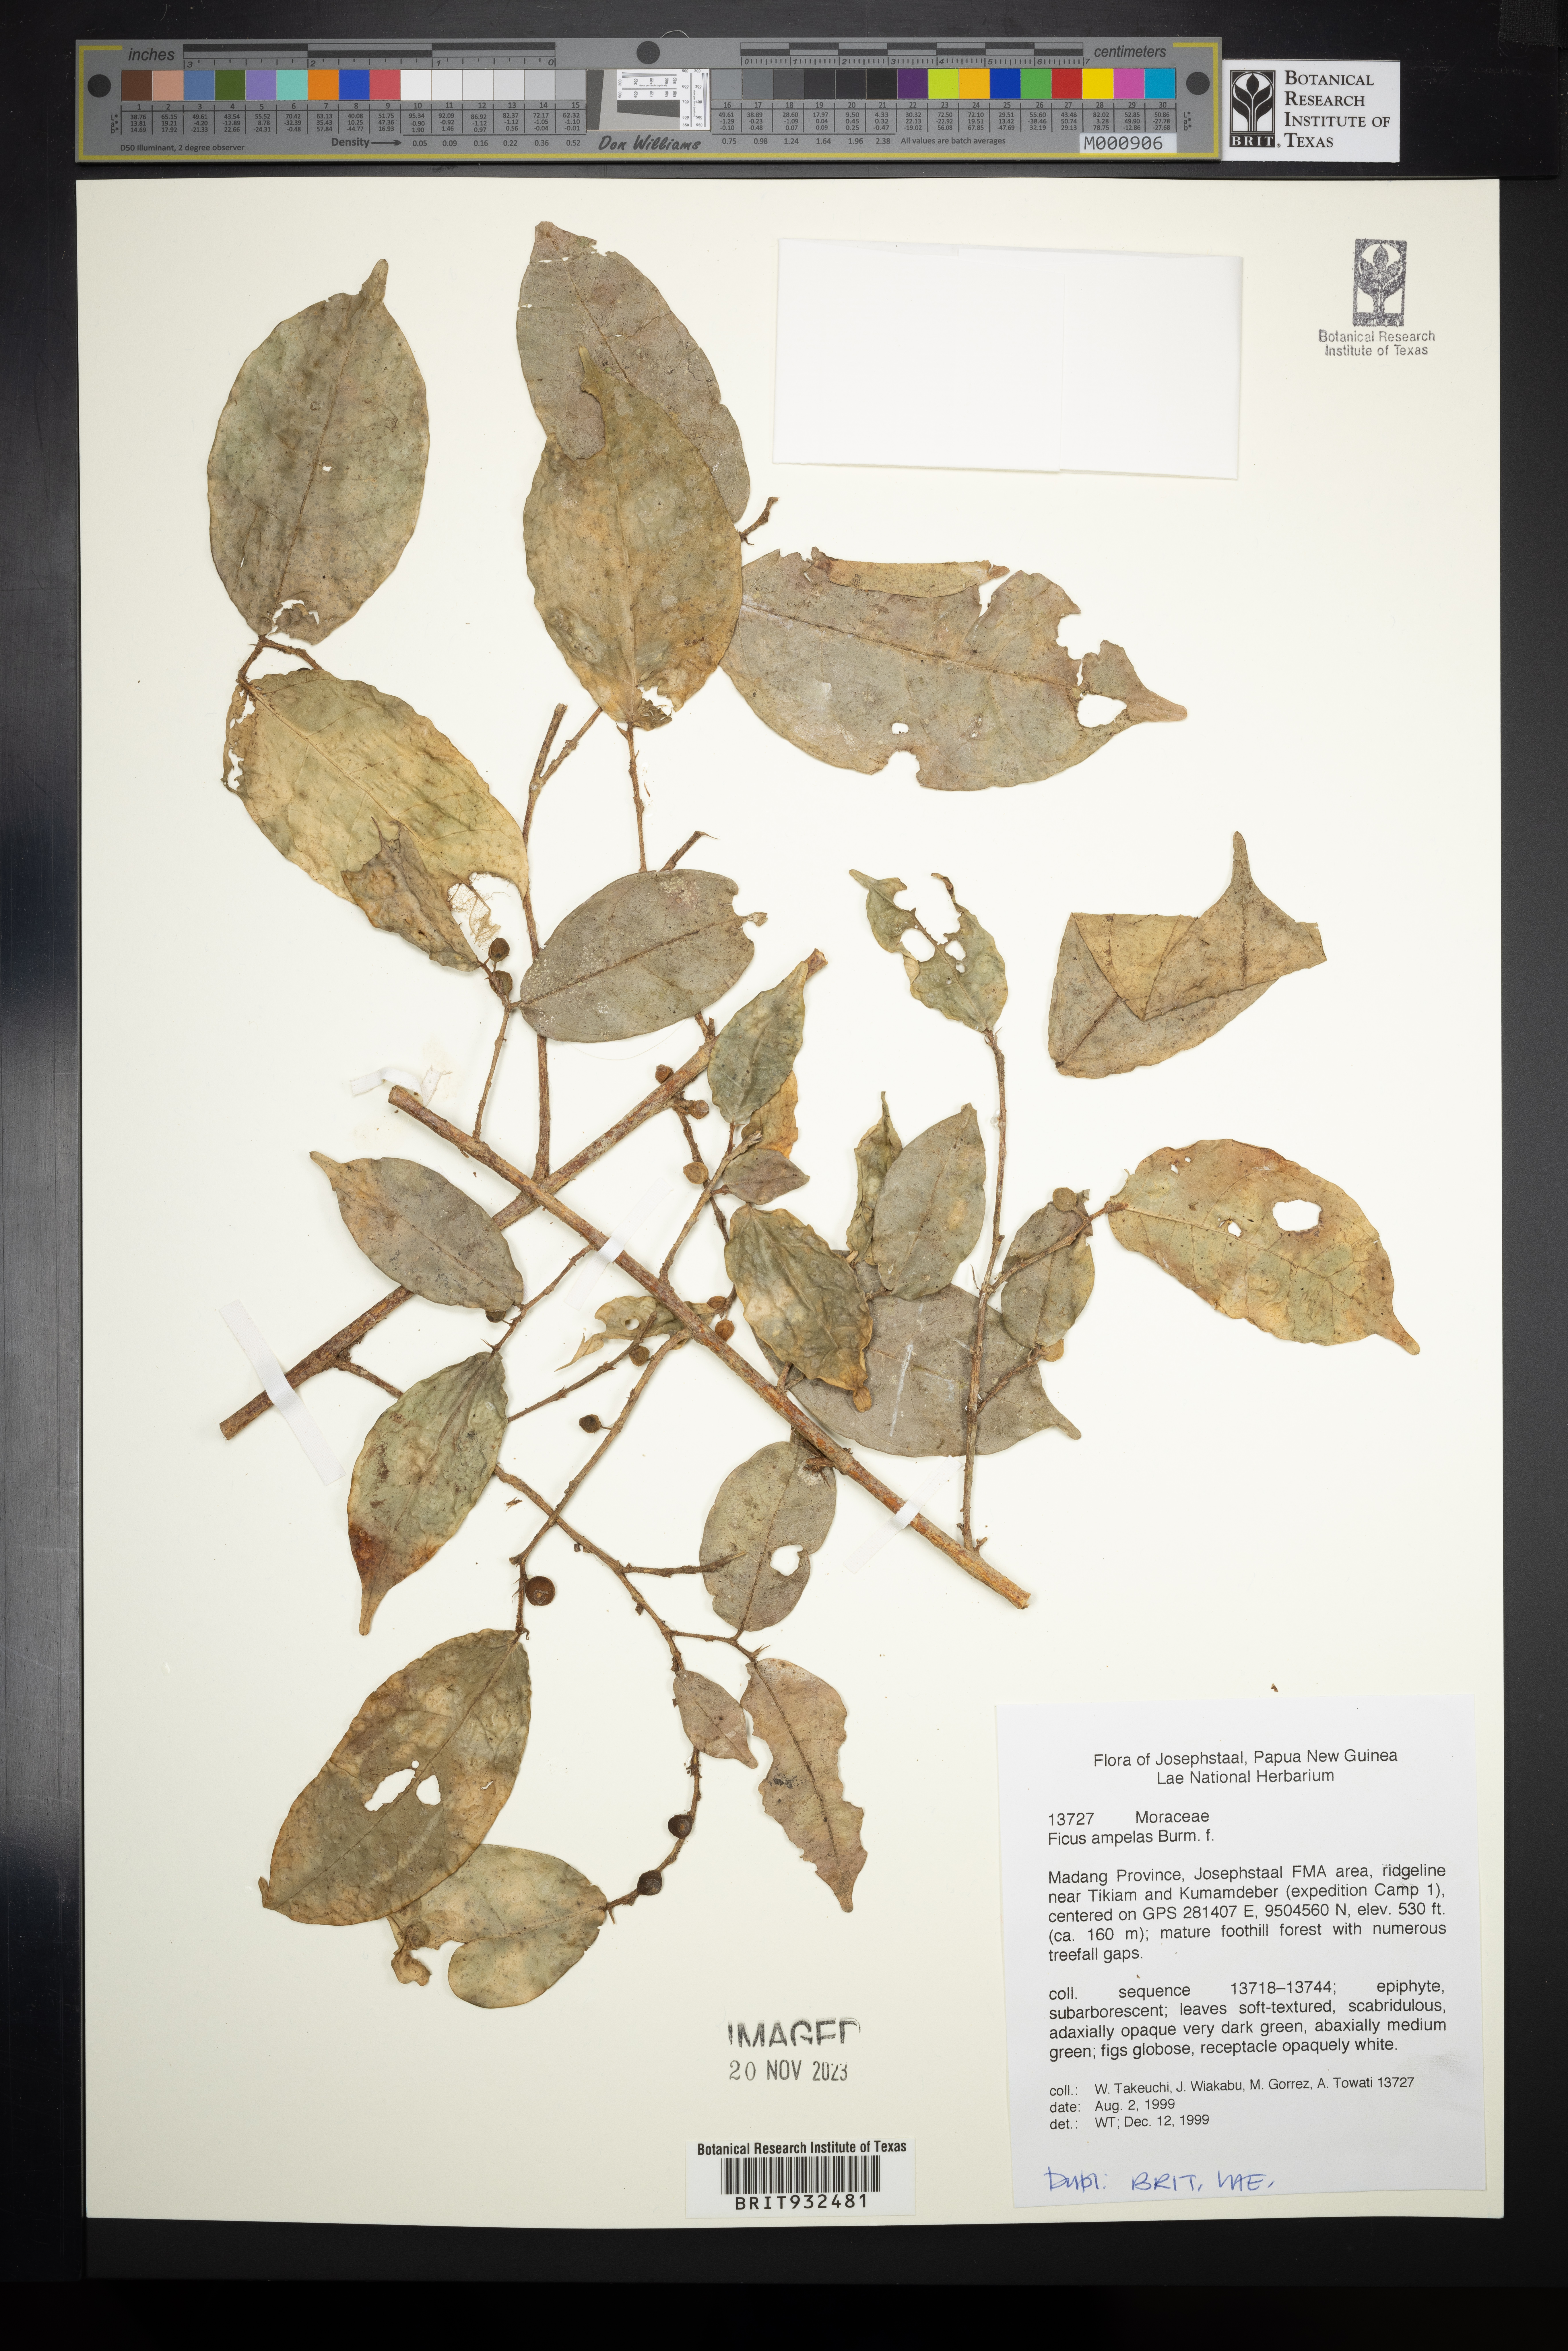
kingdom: Plantae
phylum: Tracheophyta
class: Magnoliopsida
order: Rosales
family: Moraceae
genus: Ficus
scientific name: Ficus ampelos
